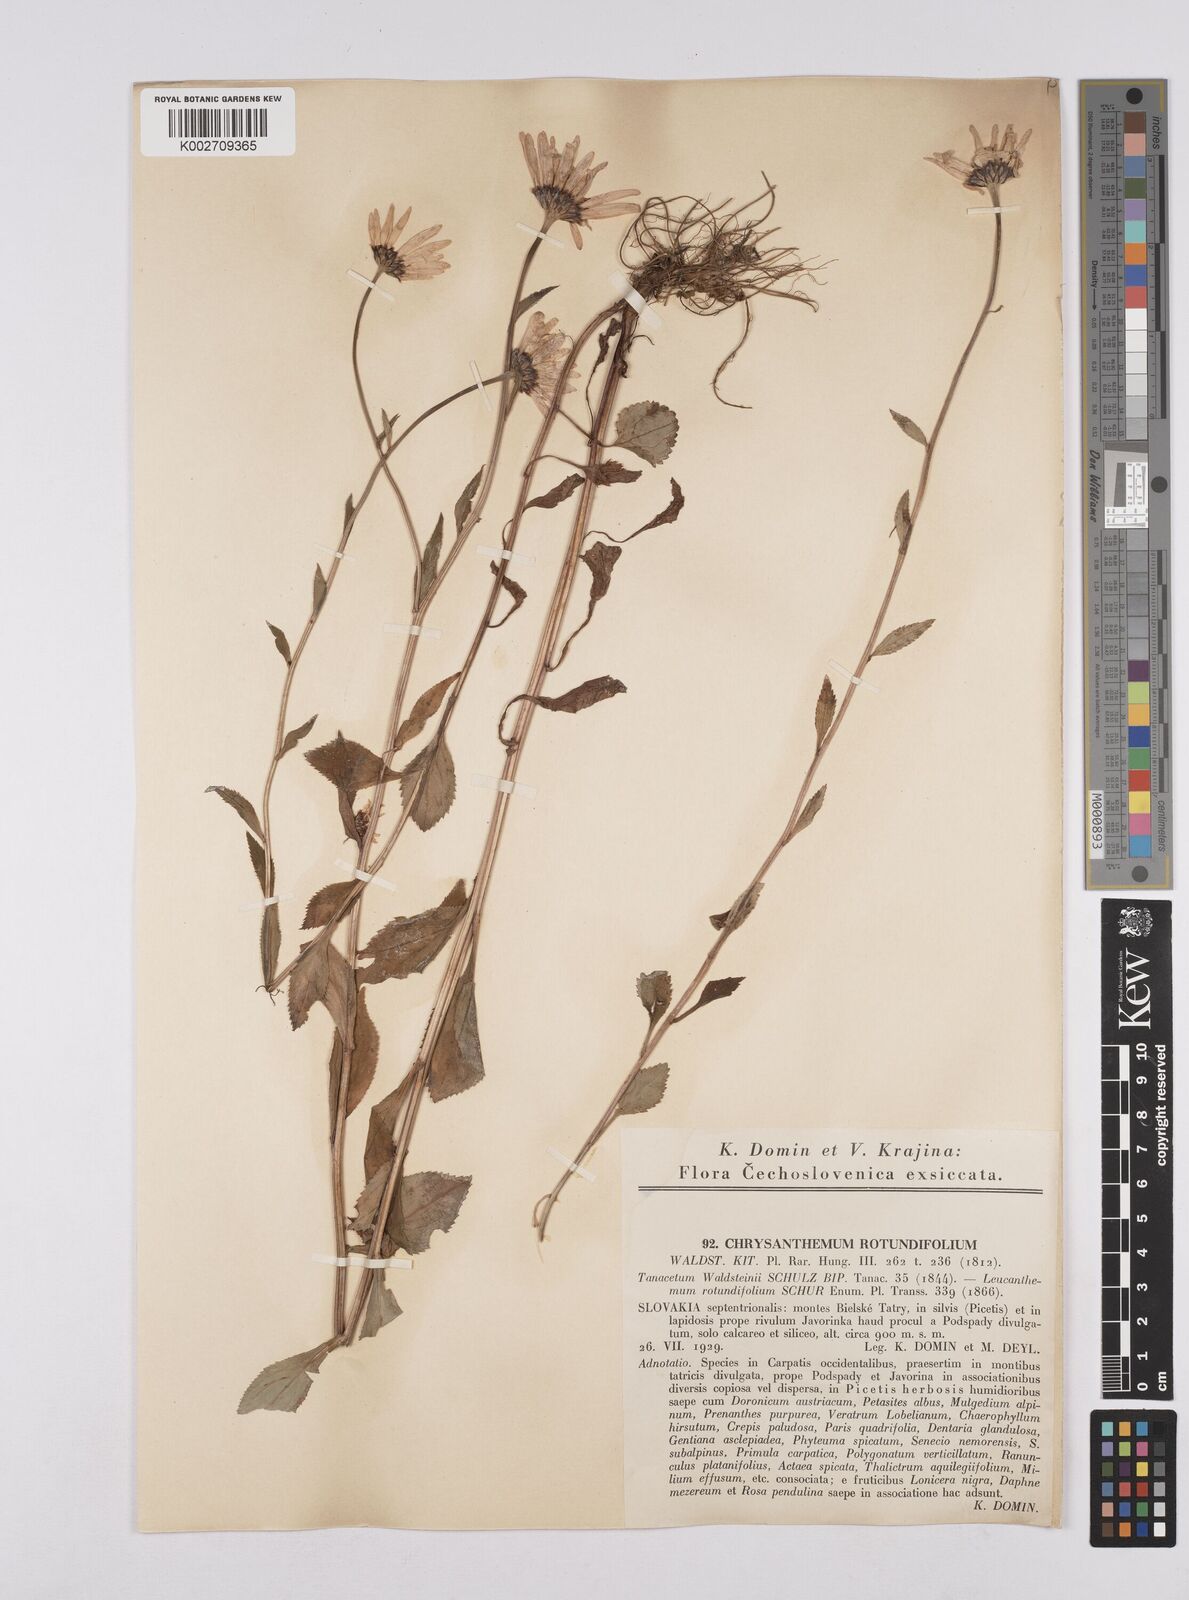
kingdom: Plantae
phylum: Tracheophyta
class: Magnoliopsida
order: Asterales
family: Asteraceae
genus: Leucanthemum
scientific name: Leucanthemum rotundifolium
